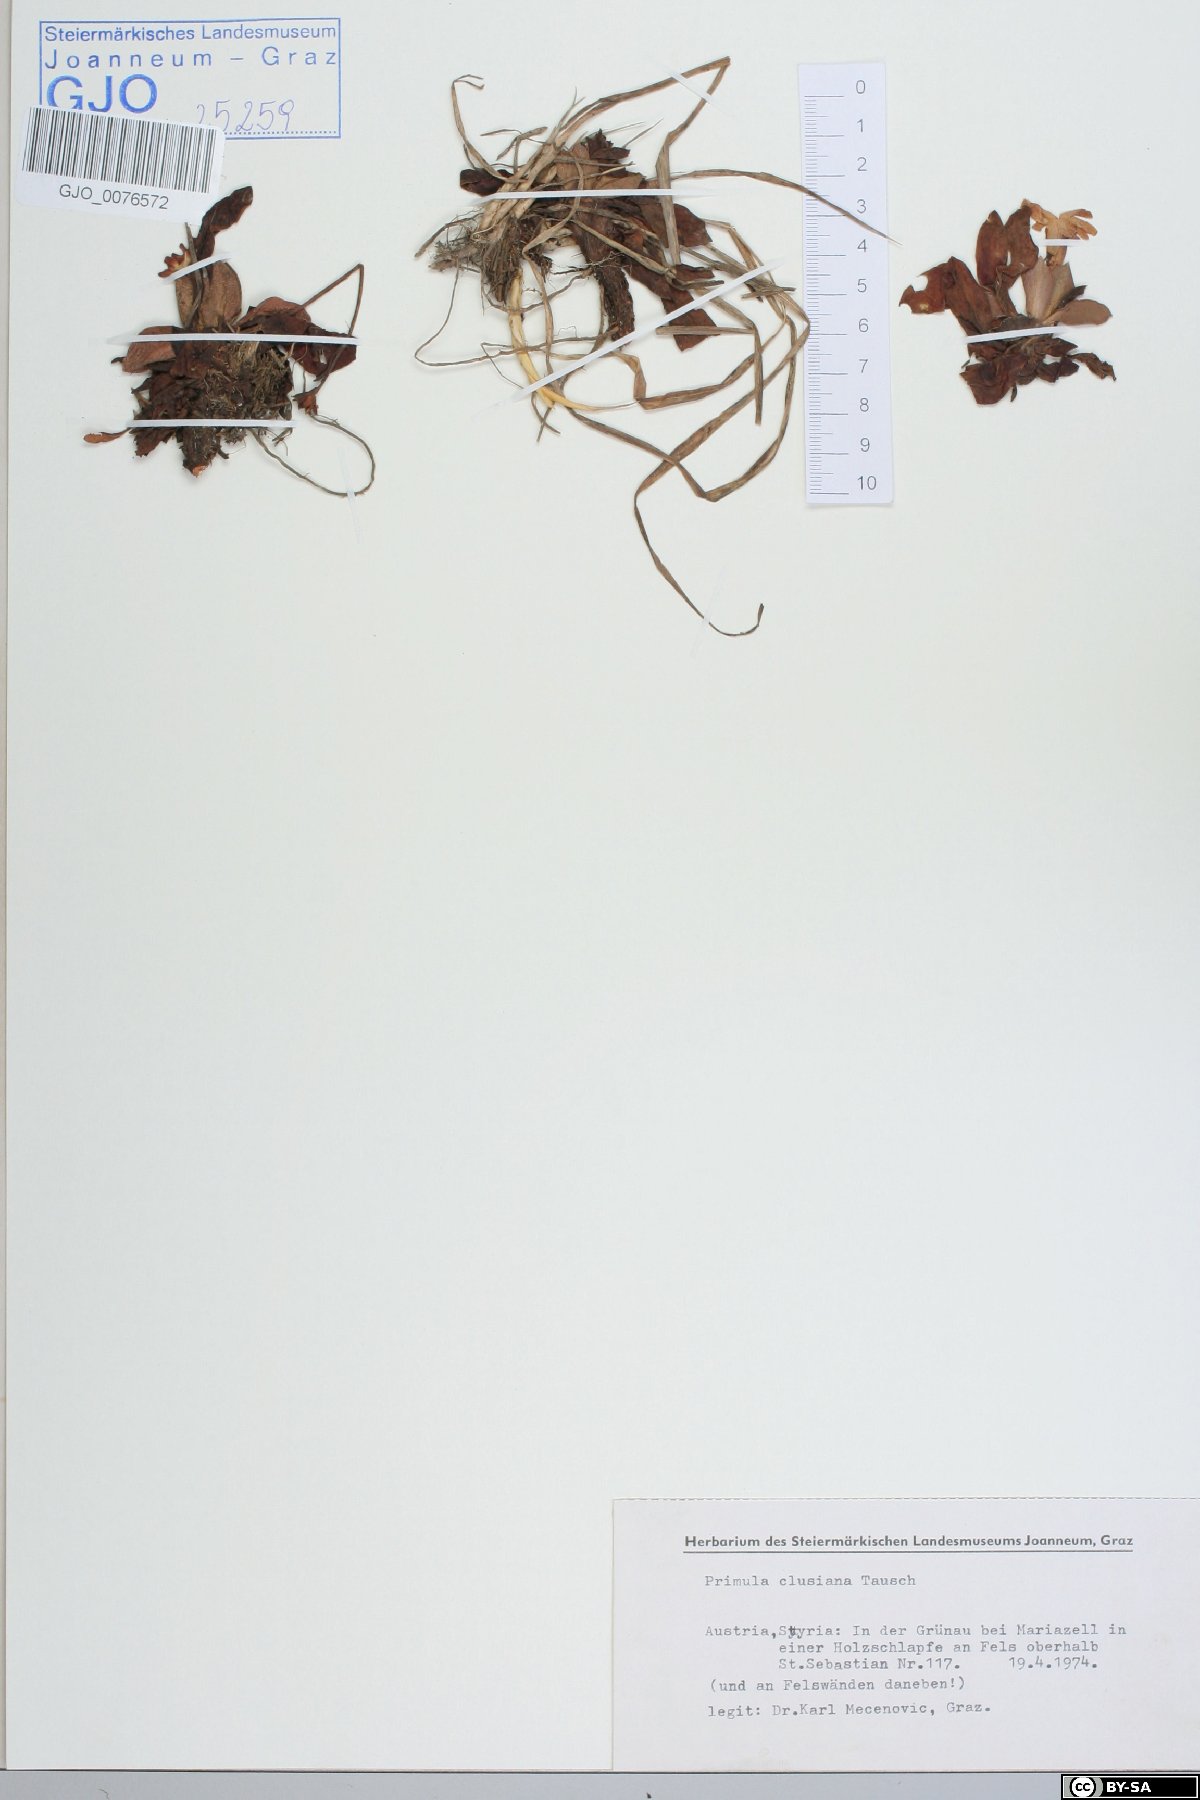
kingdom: Plantae
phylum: Tracheophyta
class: Magnoliopsida
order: Ericales
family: Primulaceae
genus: Primula
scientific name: Primula clusiana
